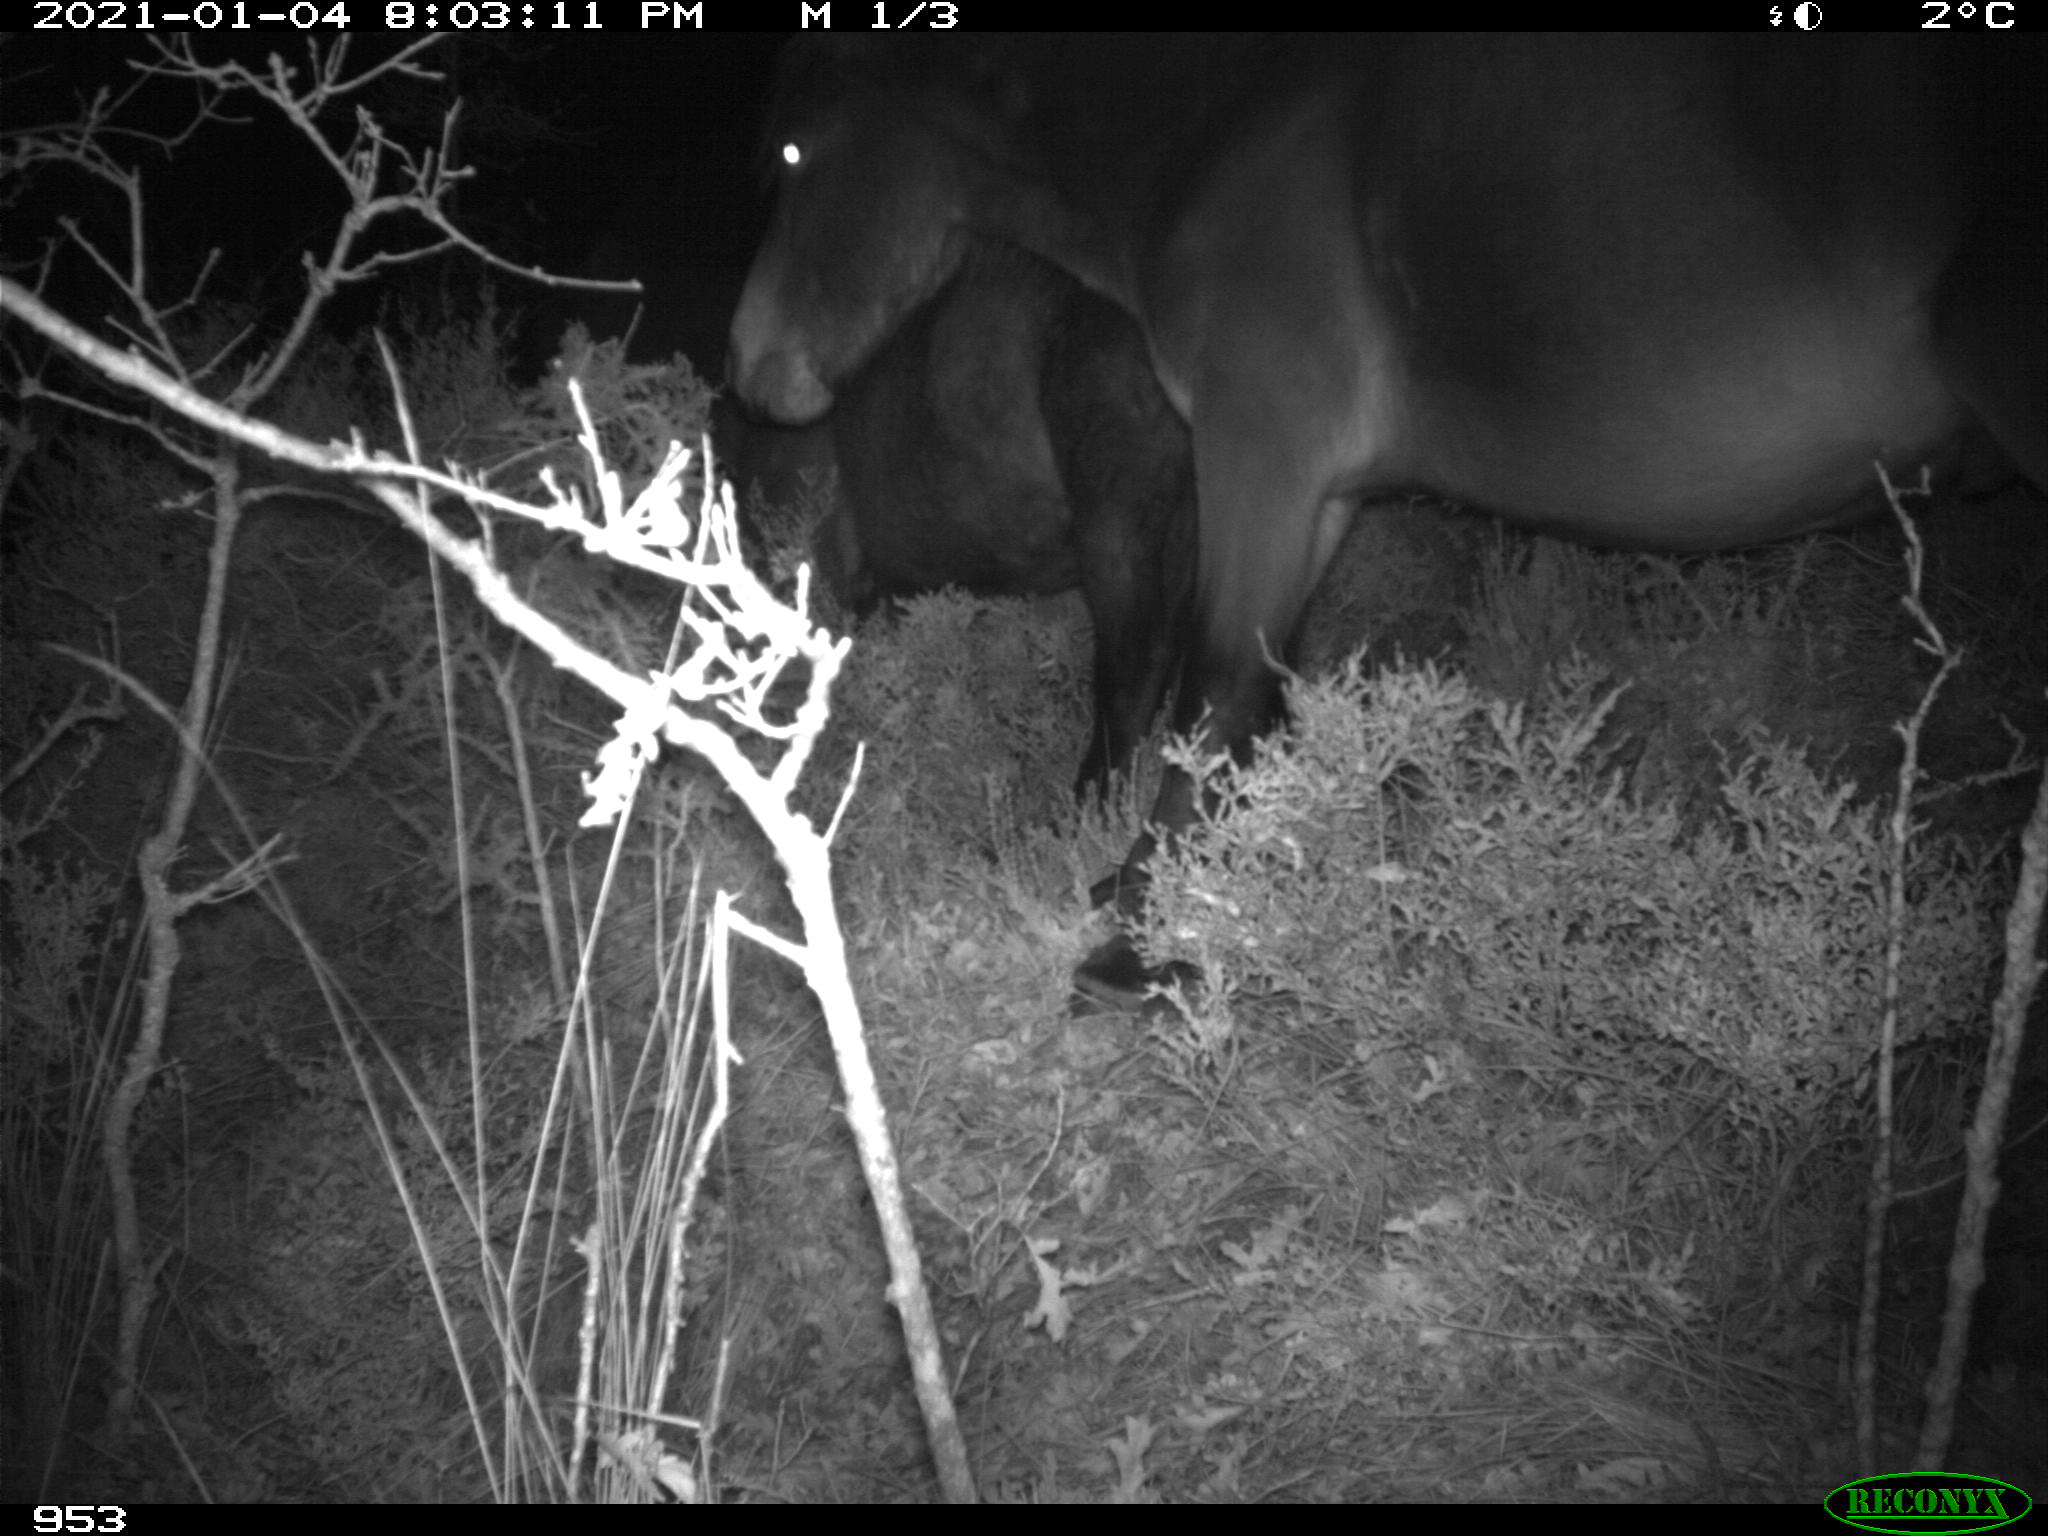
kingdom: Animalia
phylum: Chordata
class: Mammalia
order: Perissodactyla
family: Equidae
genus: Equus
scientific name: Equus caballus
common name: Horse
